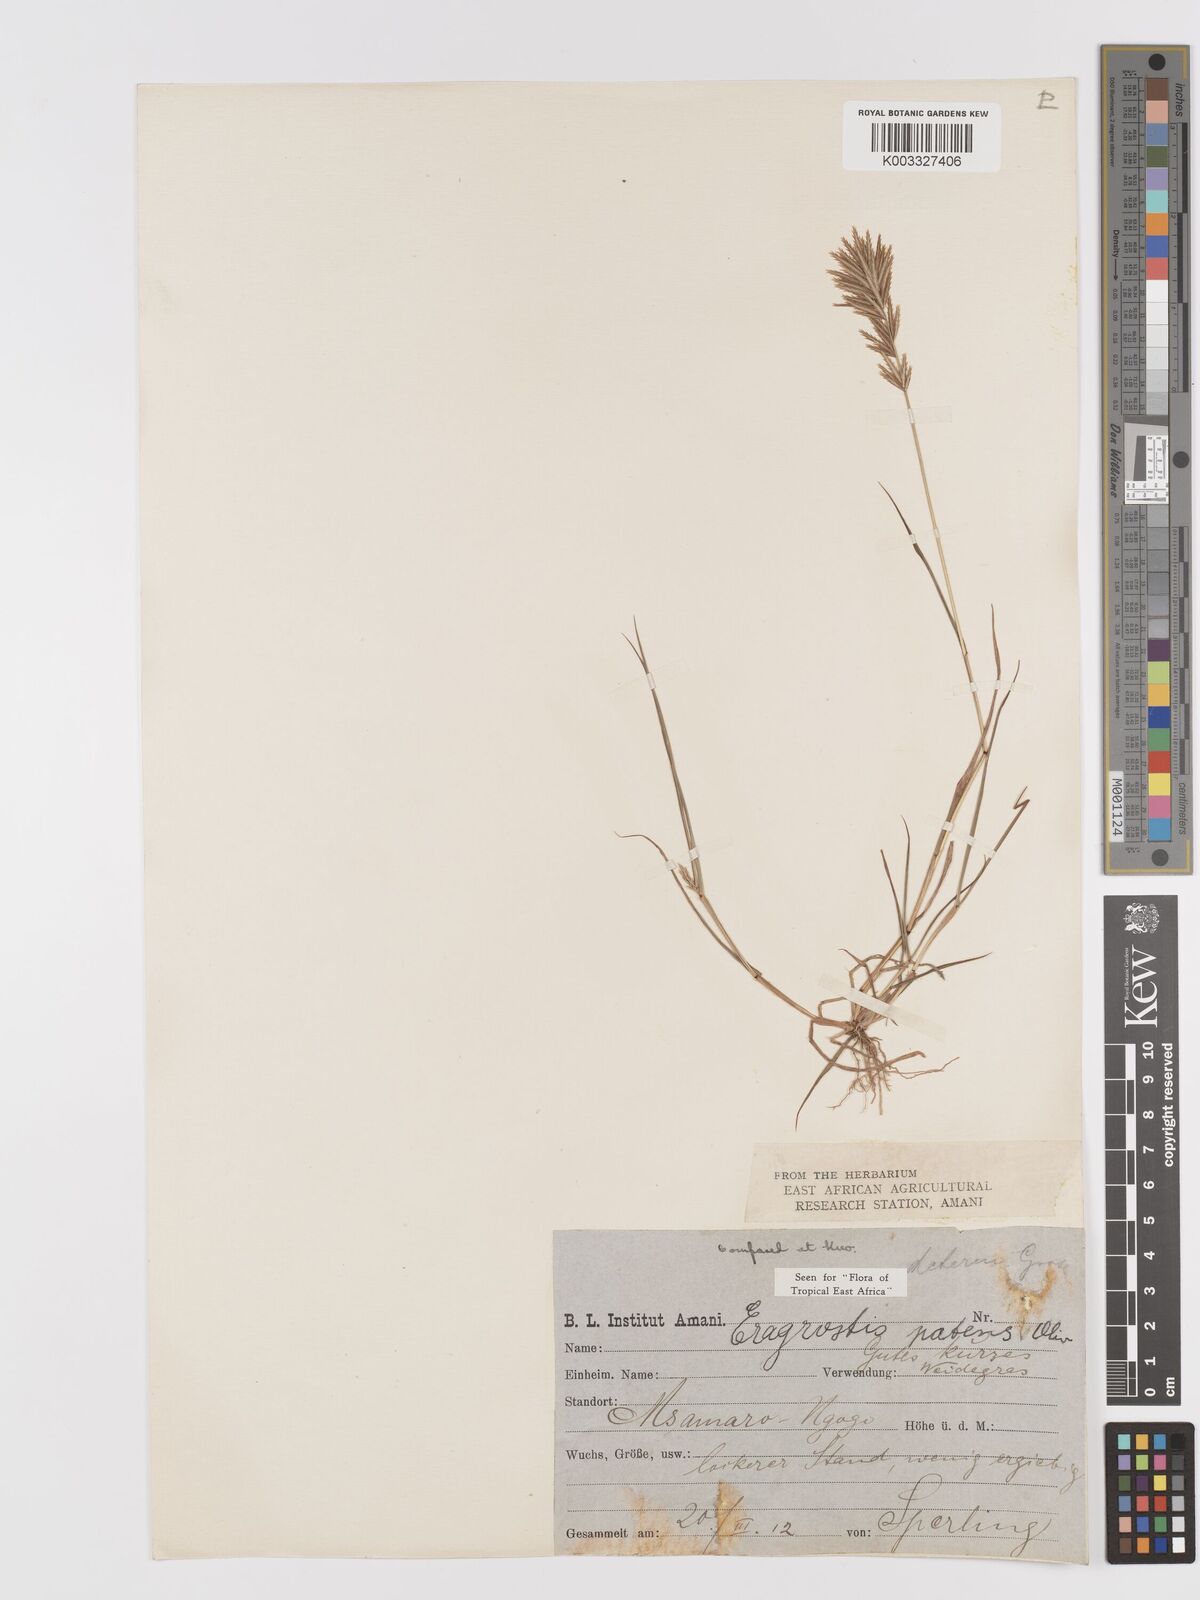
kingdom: Plantae
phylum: Tracheophyta
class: Liliopsida
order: Poales
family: Poaceae
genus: Eragrostis
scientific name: Eragrostis patens
